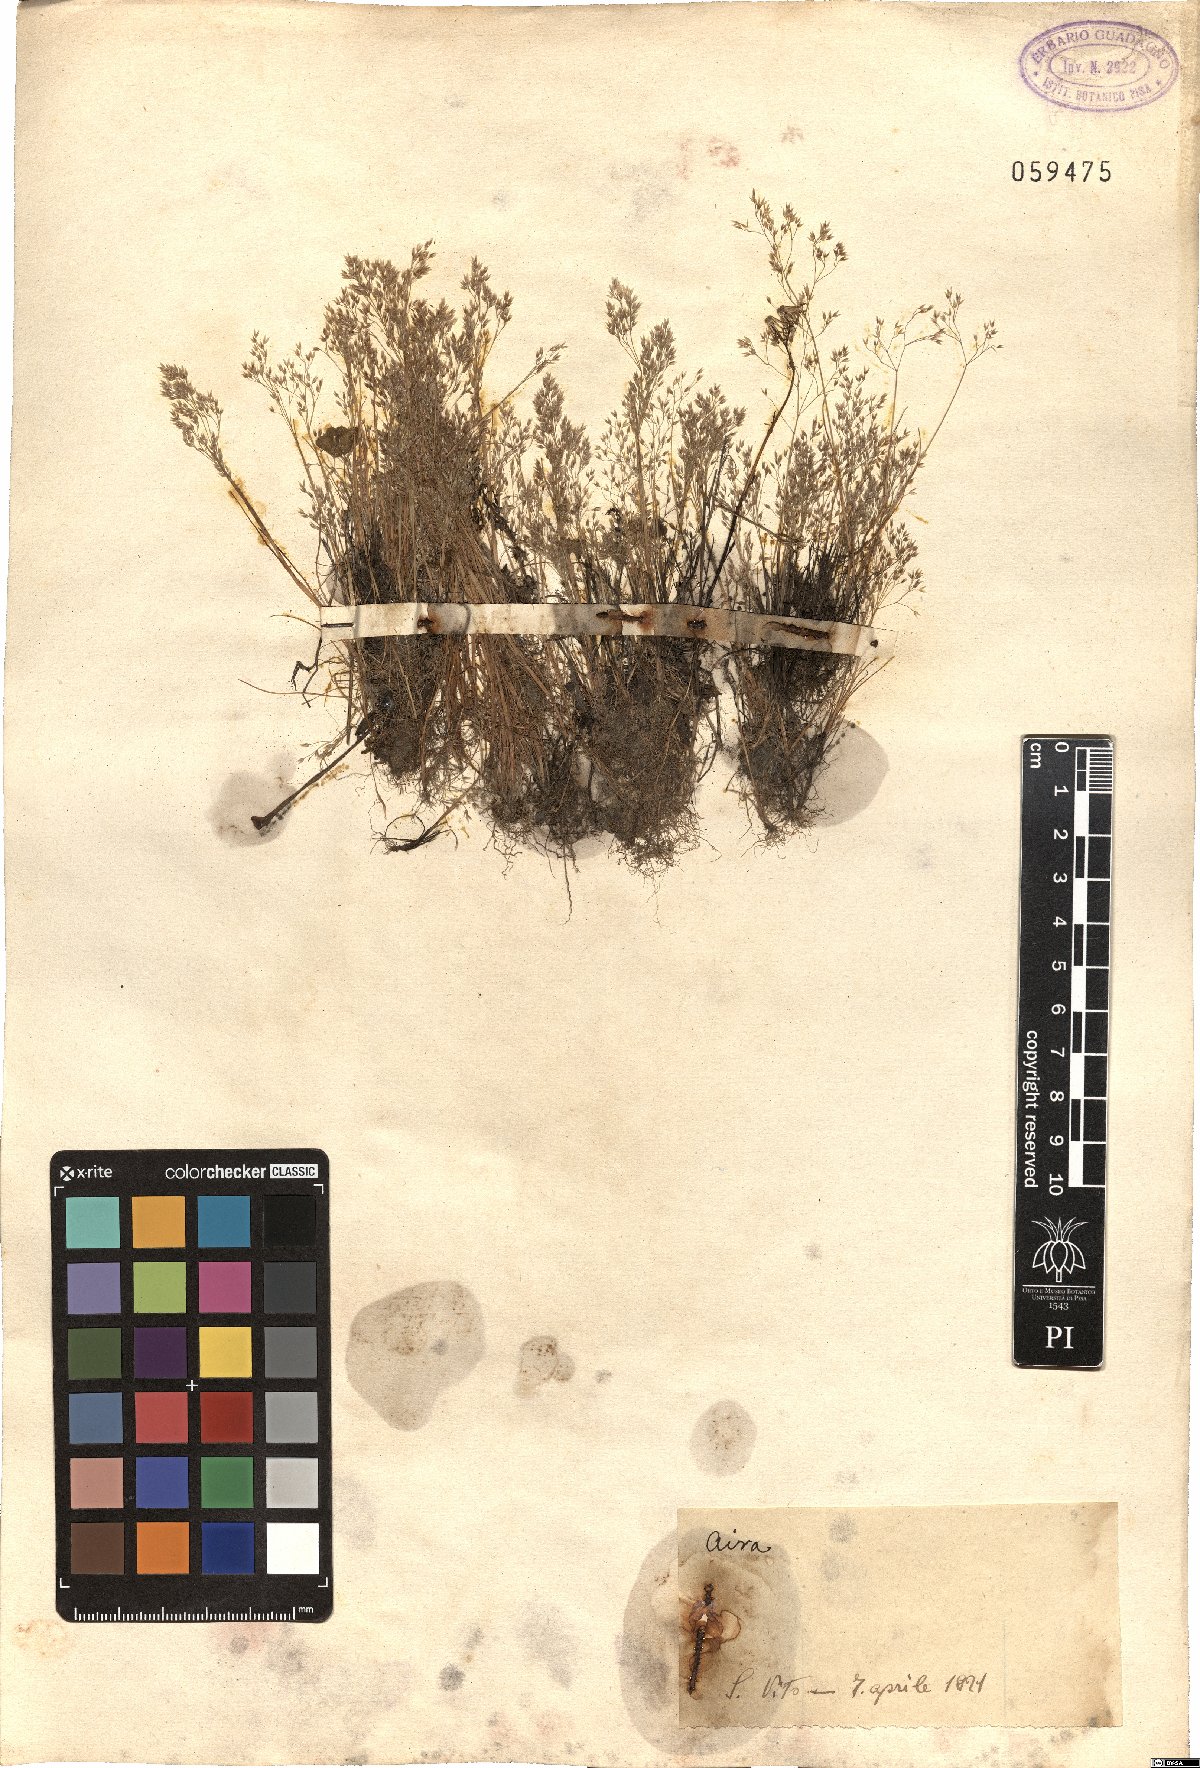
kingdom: Plantae
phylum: Tracheophyta
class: Liliopsida
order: Poales
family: Poaceae
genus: Aira
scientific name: Aira
